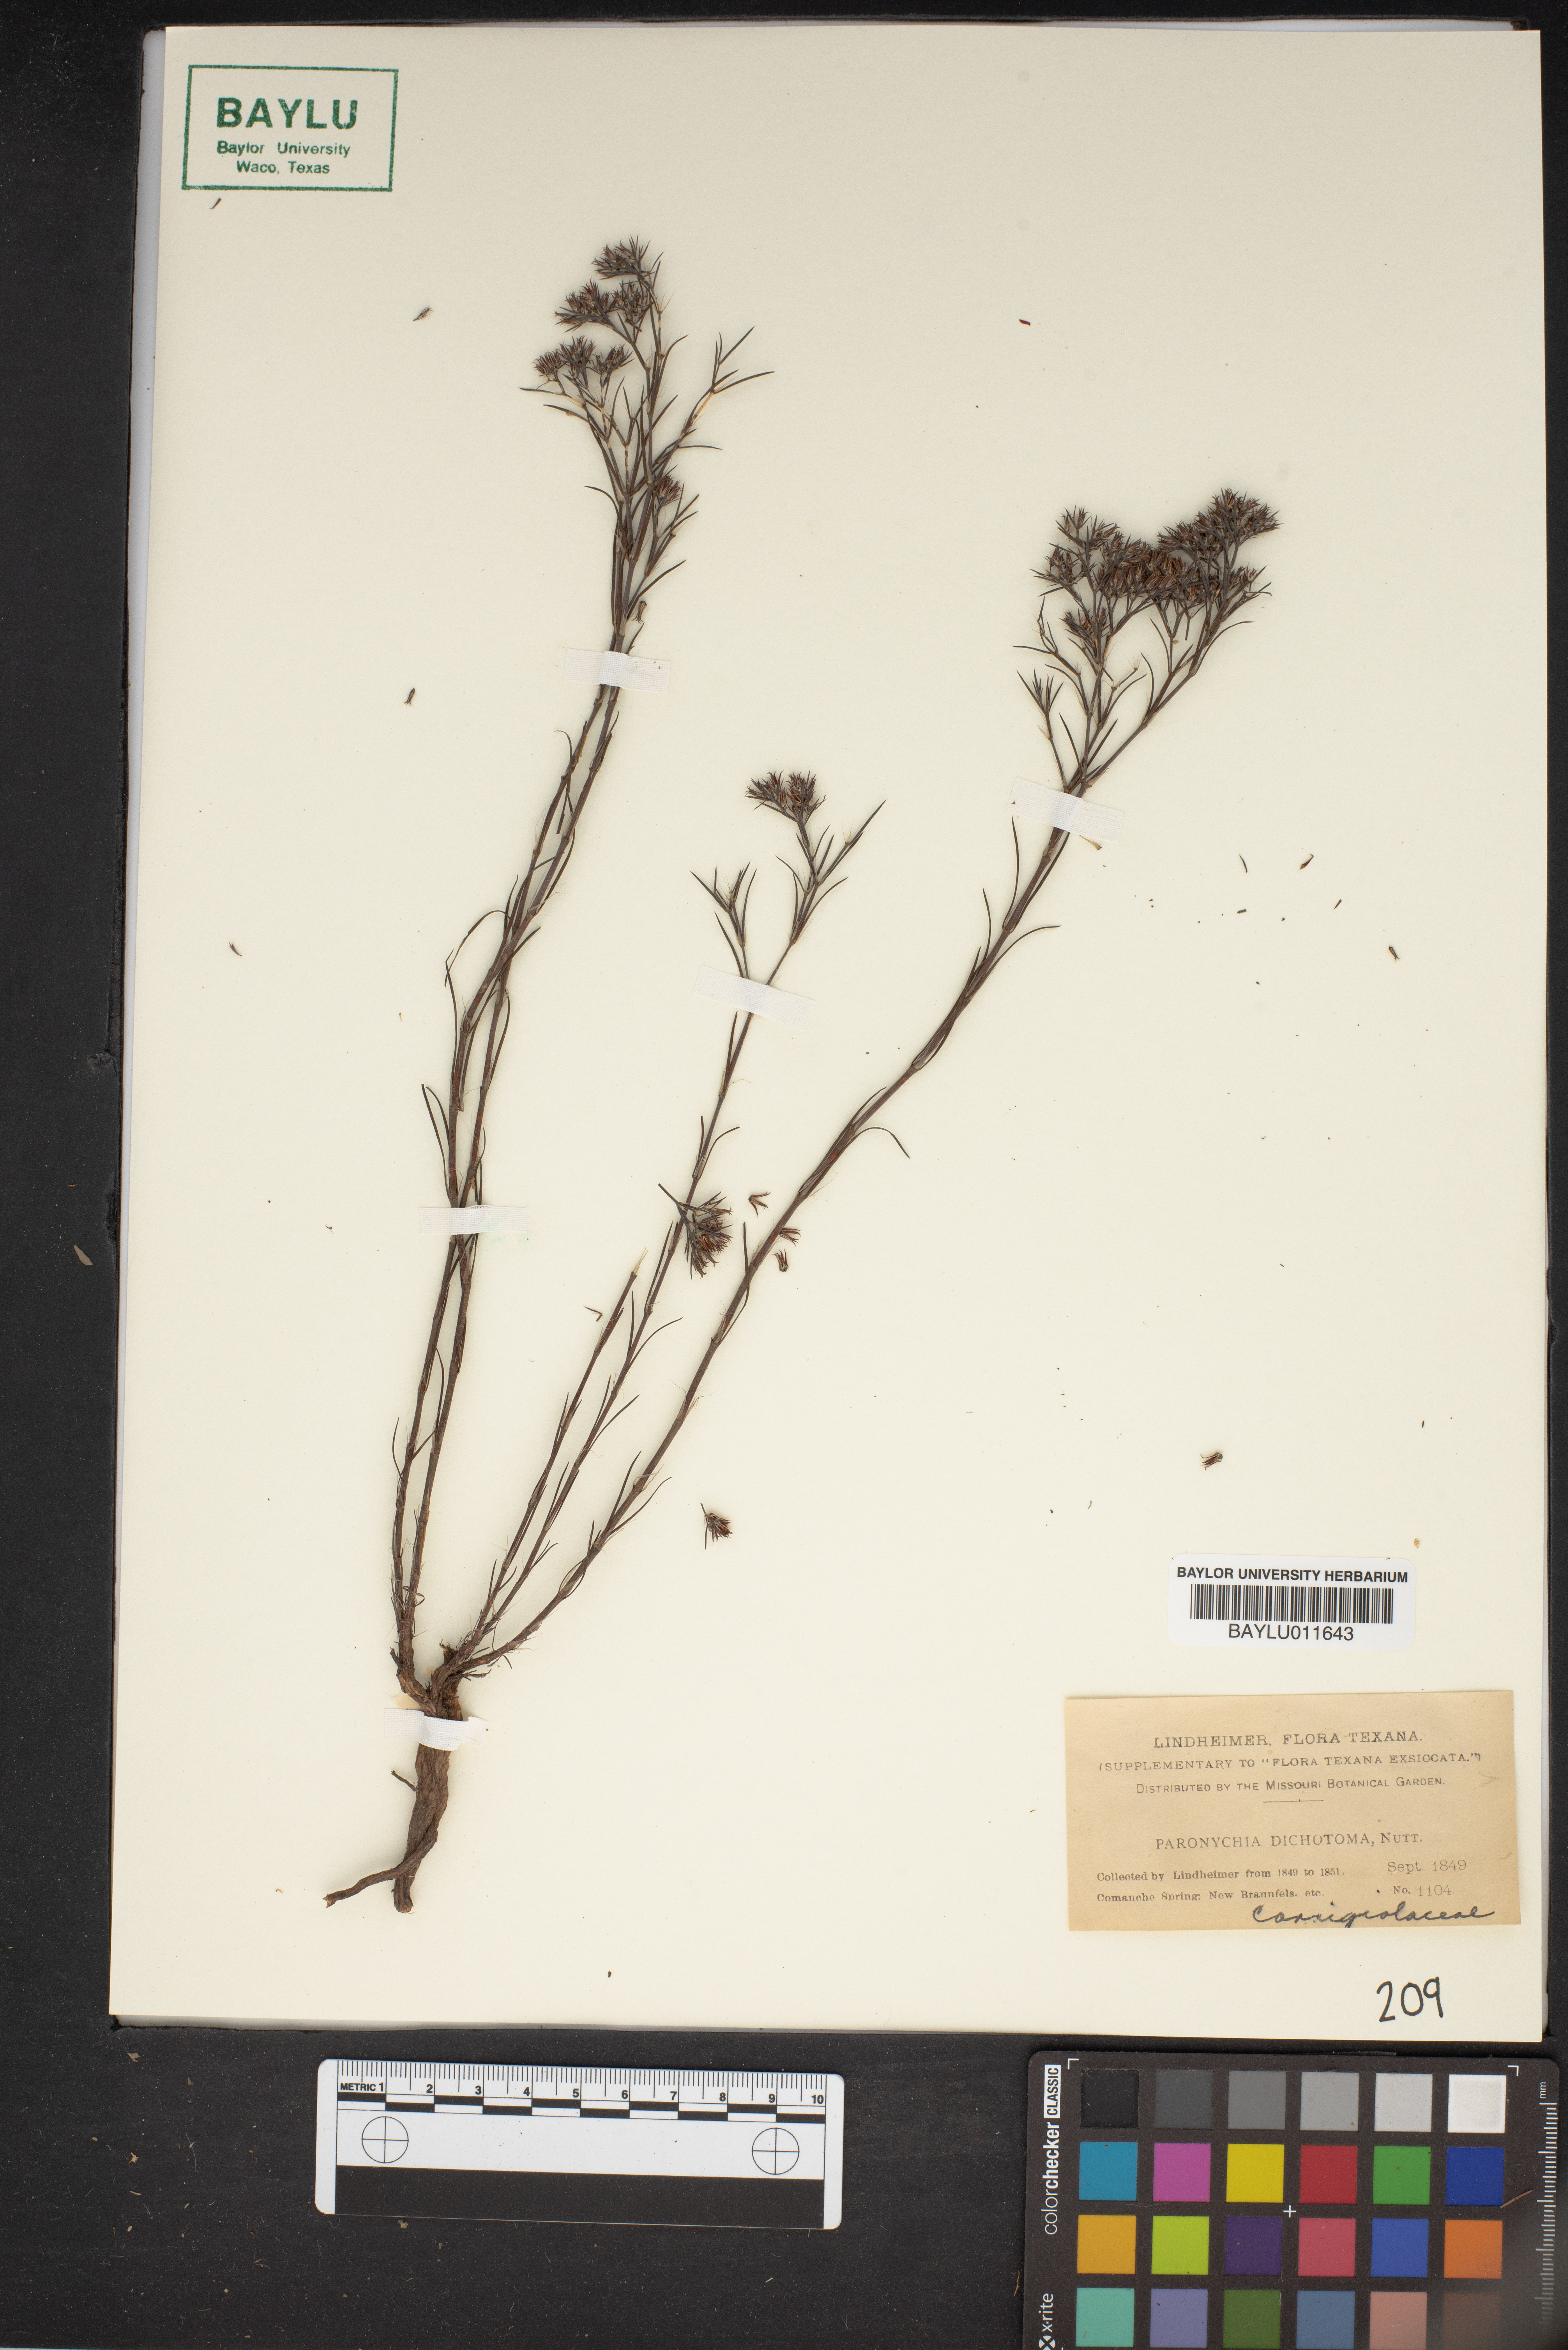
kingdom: Plantae
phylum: Tracheophyta
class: Magnoliopsida
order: Caryophyllales
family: Caryophyllaceae
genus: Paronychia
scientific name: Paronychia canadensis
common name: Canada forked nailwort
